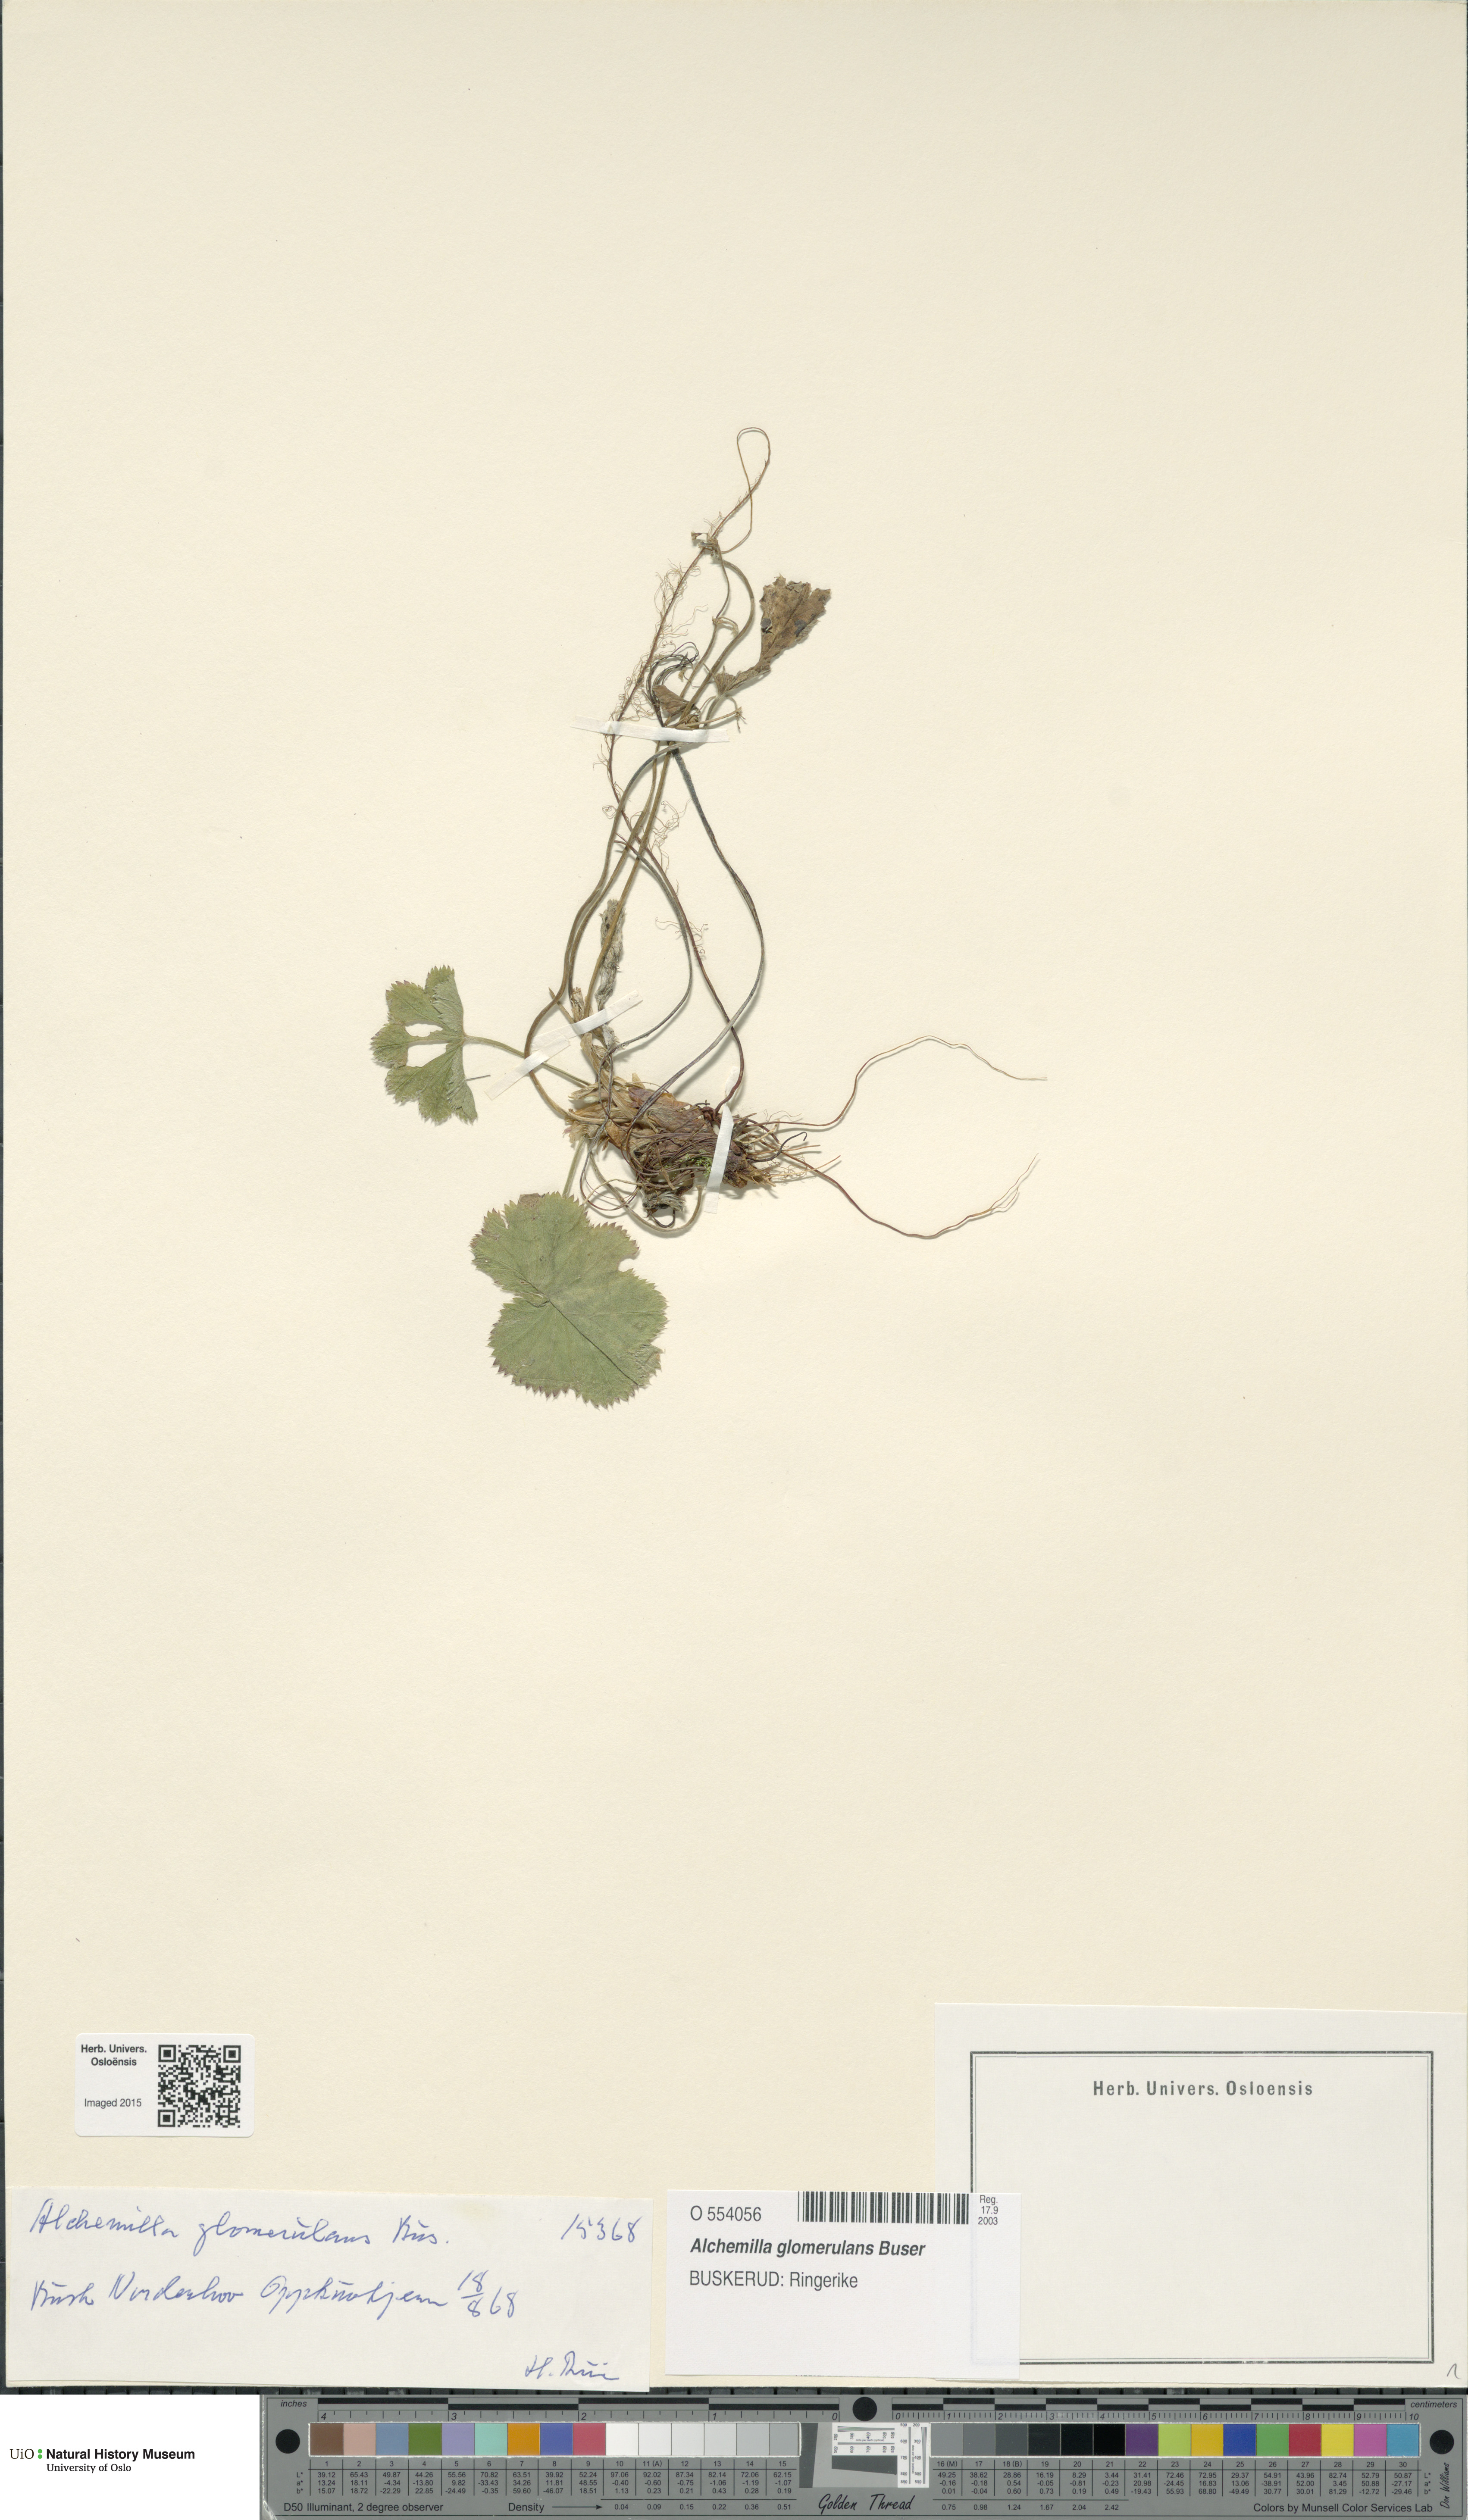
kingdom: Plantae
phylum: Tracheophyta
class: Magnoliopsida
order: Rosales
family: Rosaceae
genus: Alchemilla
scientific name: Alchemilla glomerulans
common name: Clustered lady's mantle
